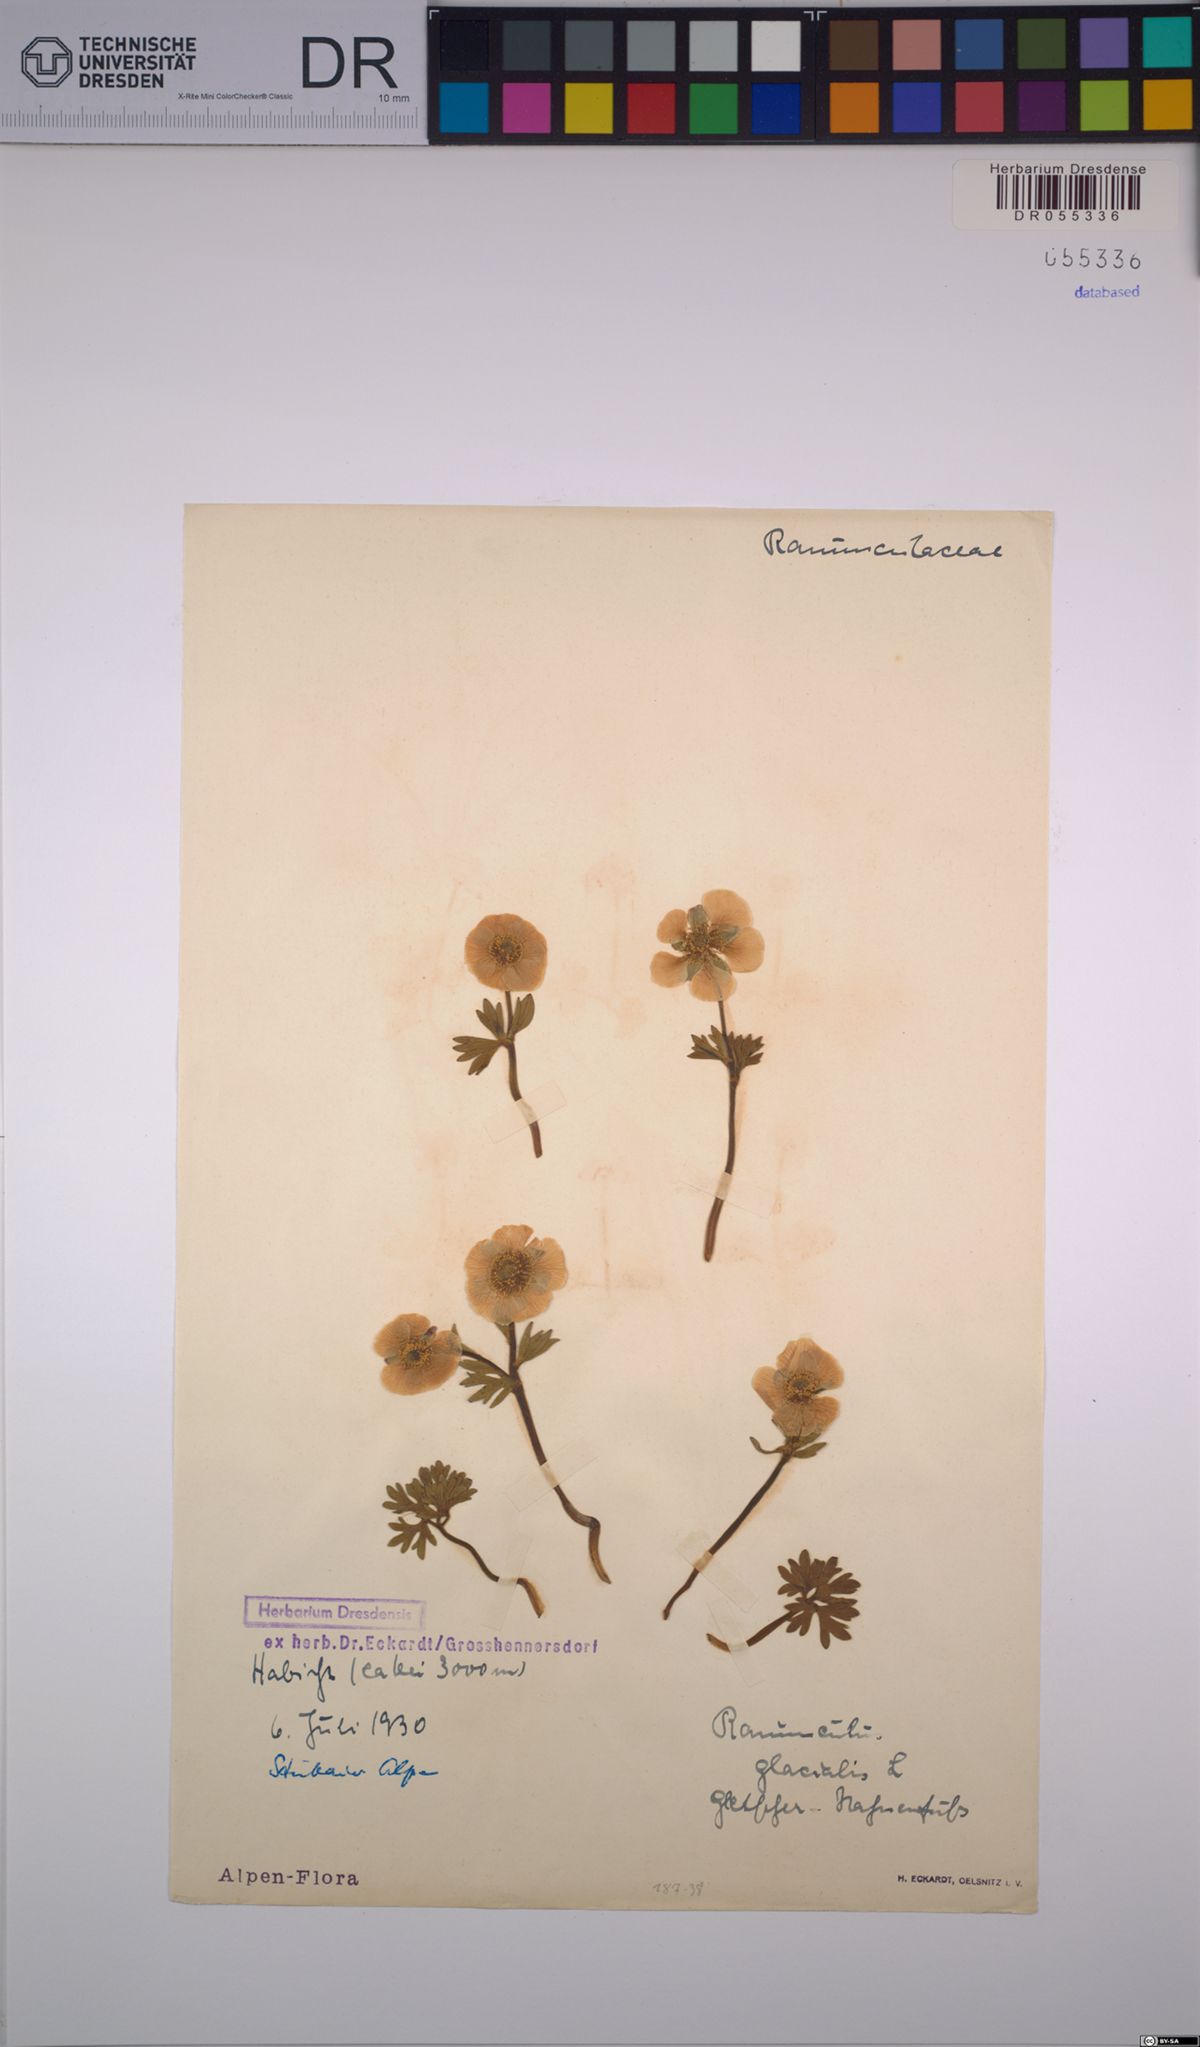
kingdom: Plantae
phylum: Tracheophyta
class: Magnoliopsida
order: Ranunculales
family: Ranunculaceae
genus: Ranunculus
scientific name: Ranunculus glacialis
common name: Glacier buttercup
